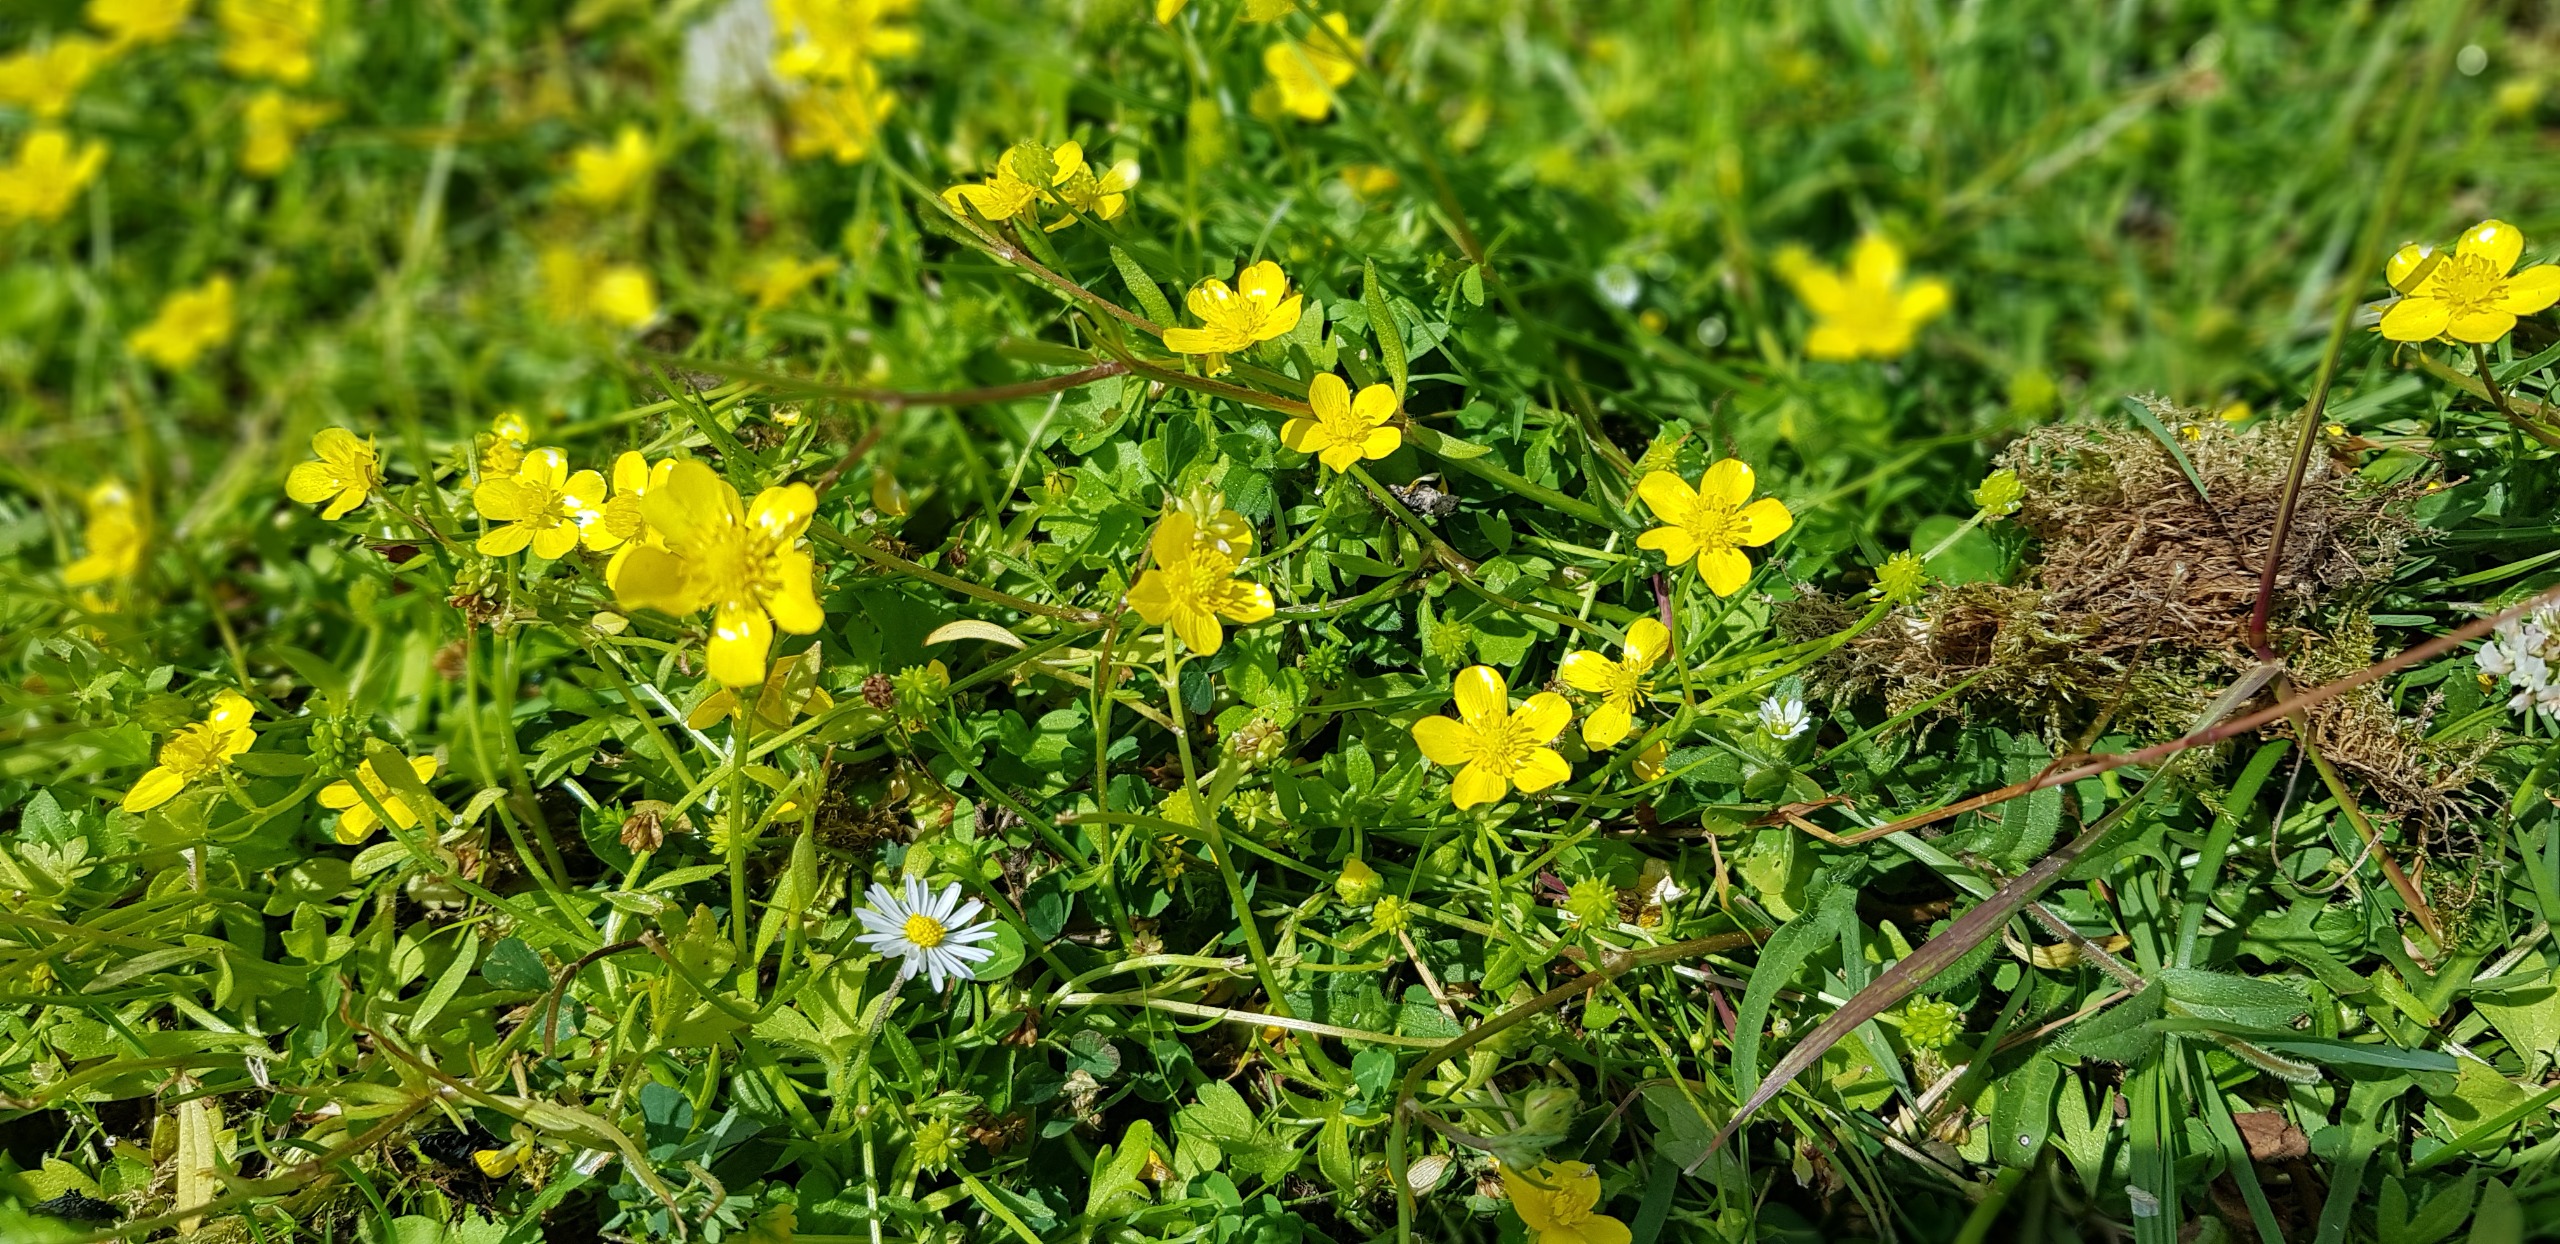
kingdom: Plantae
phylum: Tracheophyta
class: Magnoliopsida
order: Ranunculales
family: Ranunculaceae
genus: Ranunculus
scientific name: Ranunculus flammula
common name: Kær-ranunkel
